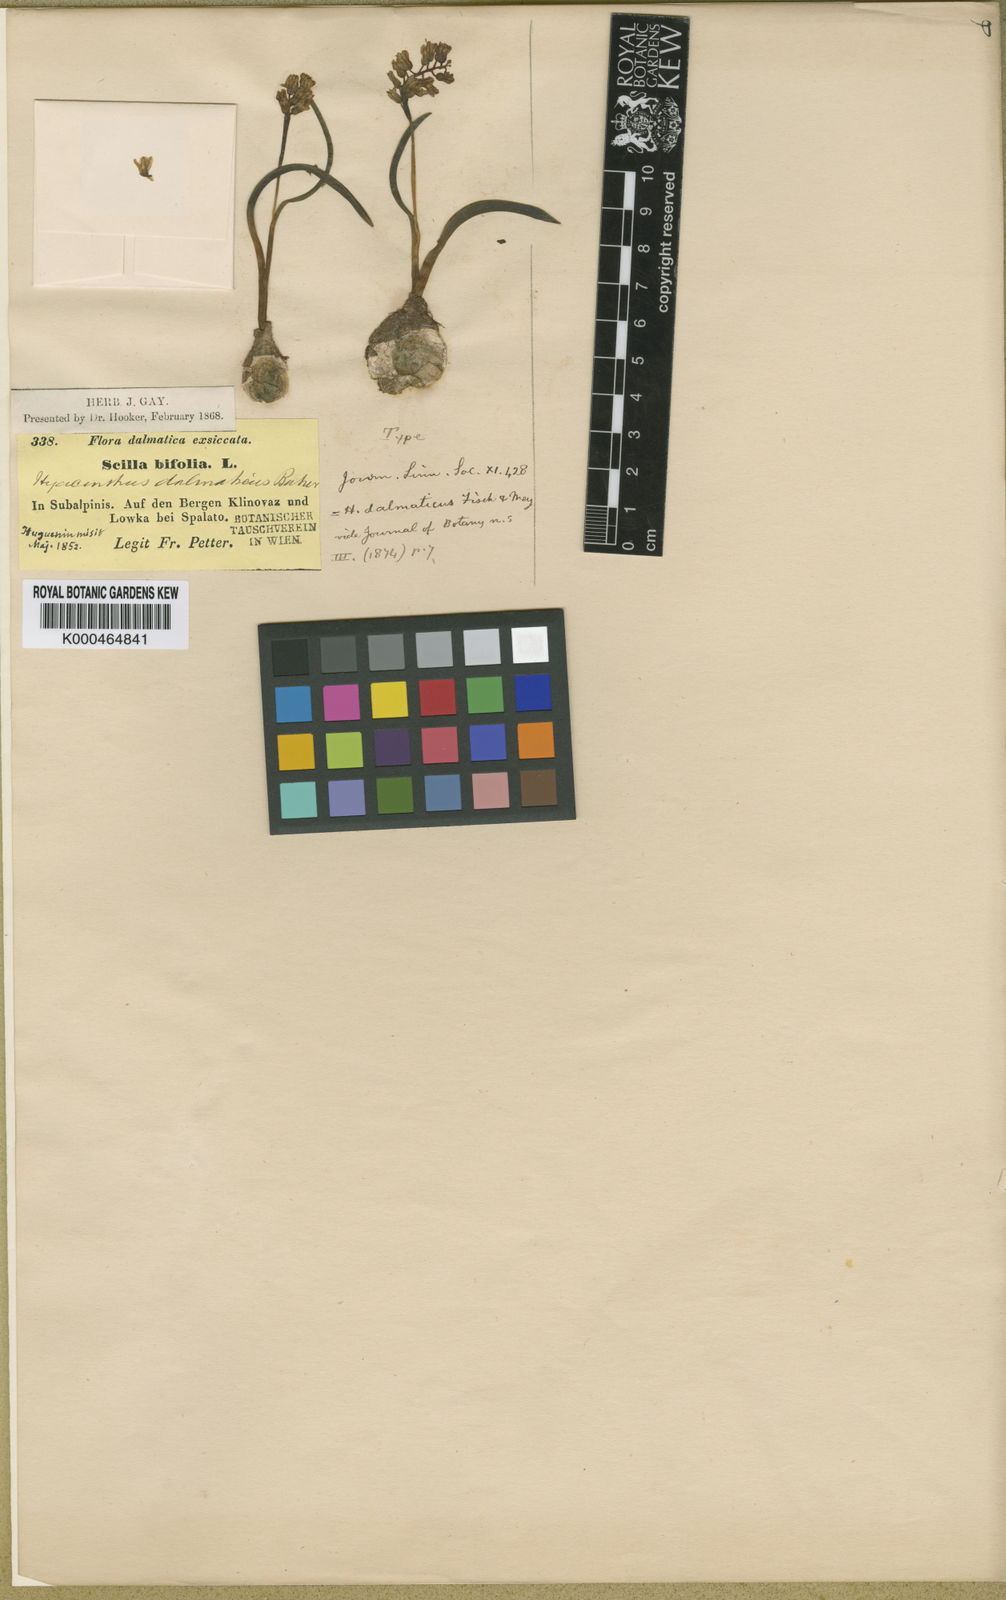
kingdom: Plantae
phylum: Tracheophyta
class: Liliopsida
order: Asparagales
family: Asparagaceae
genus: Hyacinthella
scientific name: Hyacinthella leucophaea
